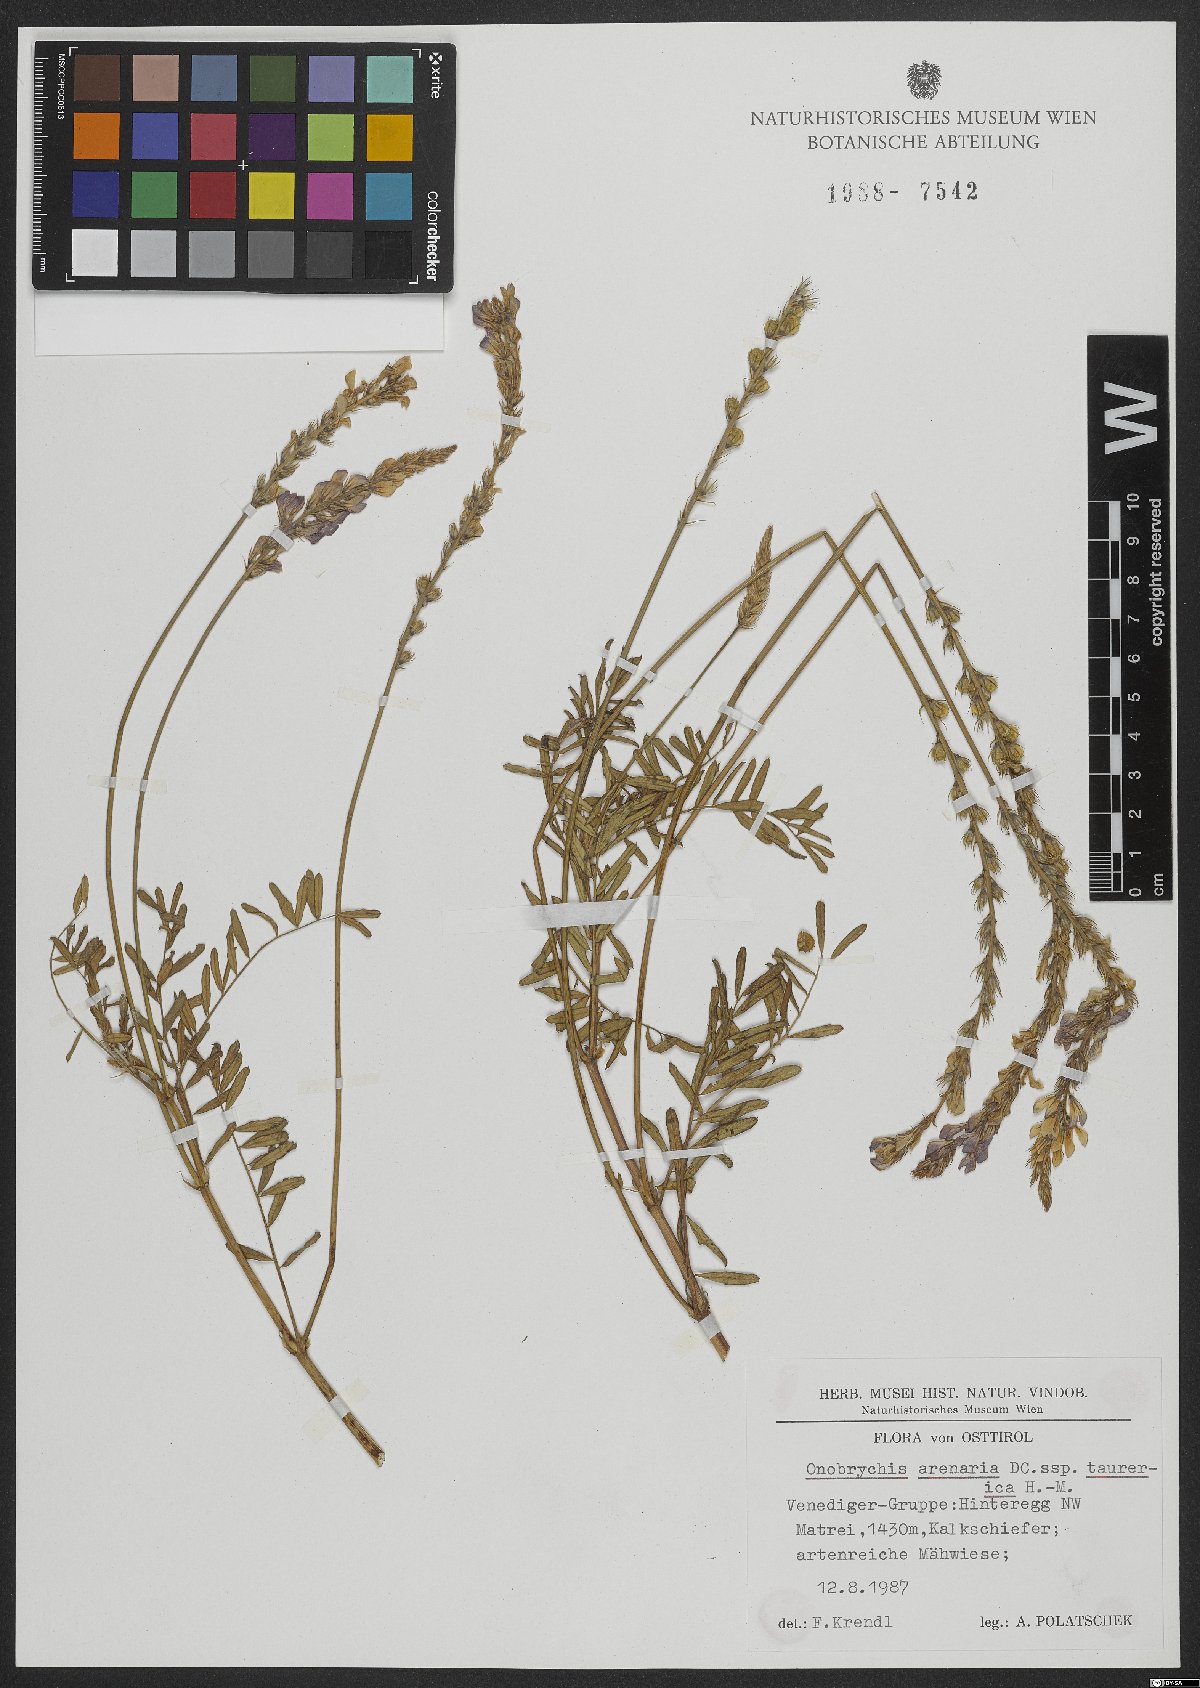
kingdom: Plantae
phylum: Tracheophyta
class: Magnoliopsida
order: Fabales
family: Fabaceae
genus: Onobrychis
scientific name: Onobrychis arenaria
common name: Sand esparcet
